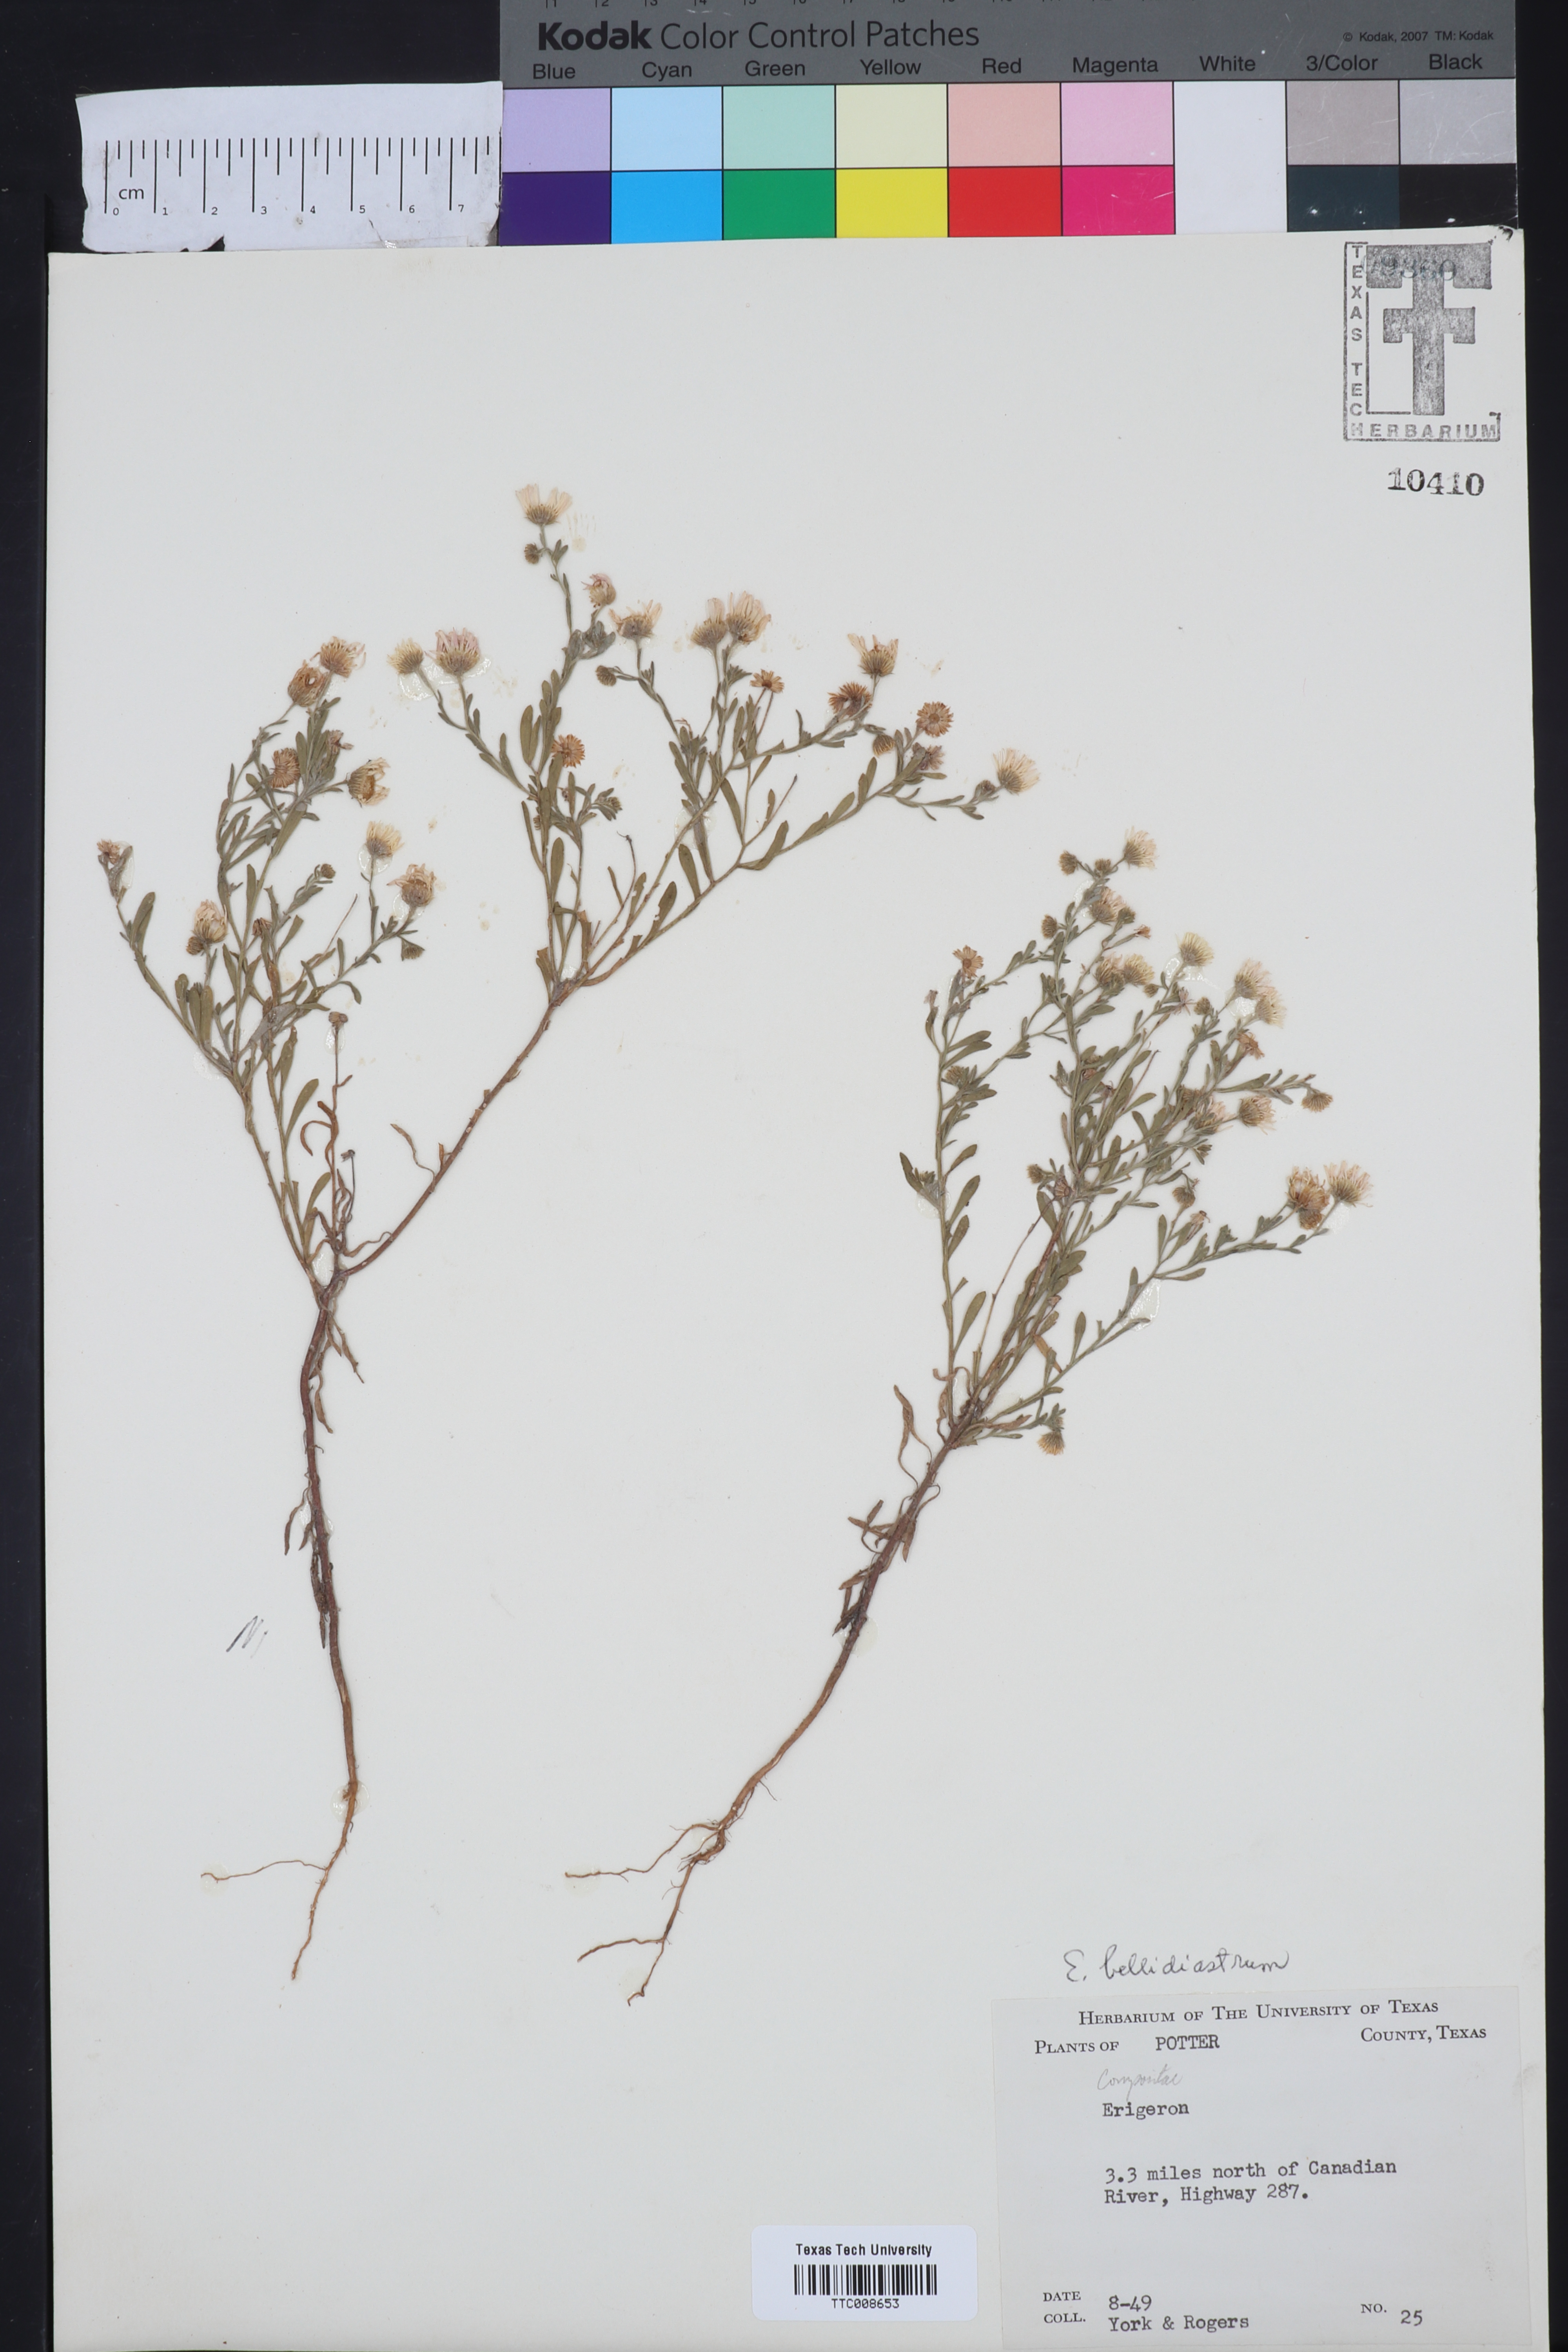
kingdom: Plantae
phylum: Tracheophyta
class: Magnoliopsida
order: Asterales
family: Asteraceae
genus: Erigeron
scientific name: Erigeron bellidiastrum
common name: Sand fleabane
